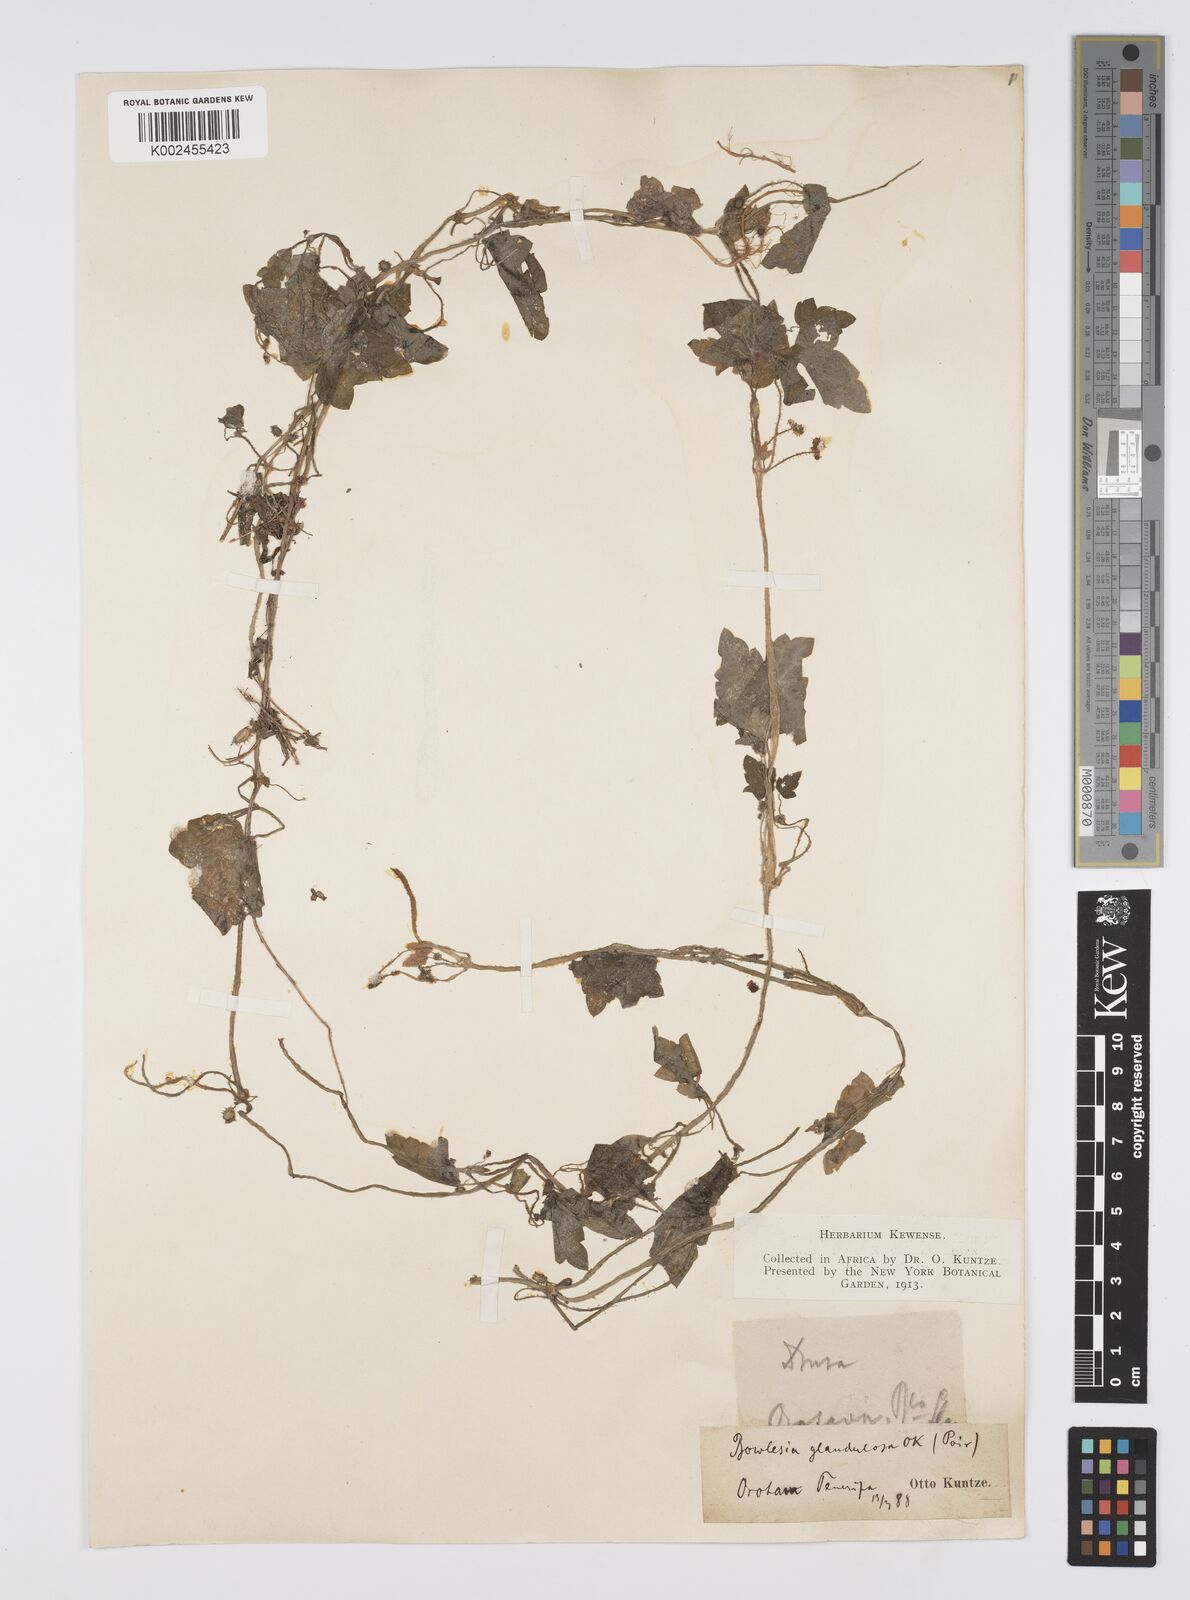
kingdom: Plantae
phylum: Tracheophyta
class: Magnoliopsida
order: Apiales
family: Apiaceae
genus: Drusa
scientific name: Drusa glandulosa
